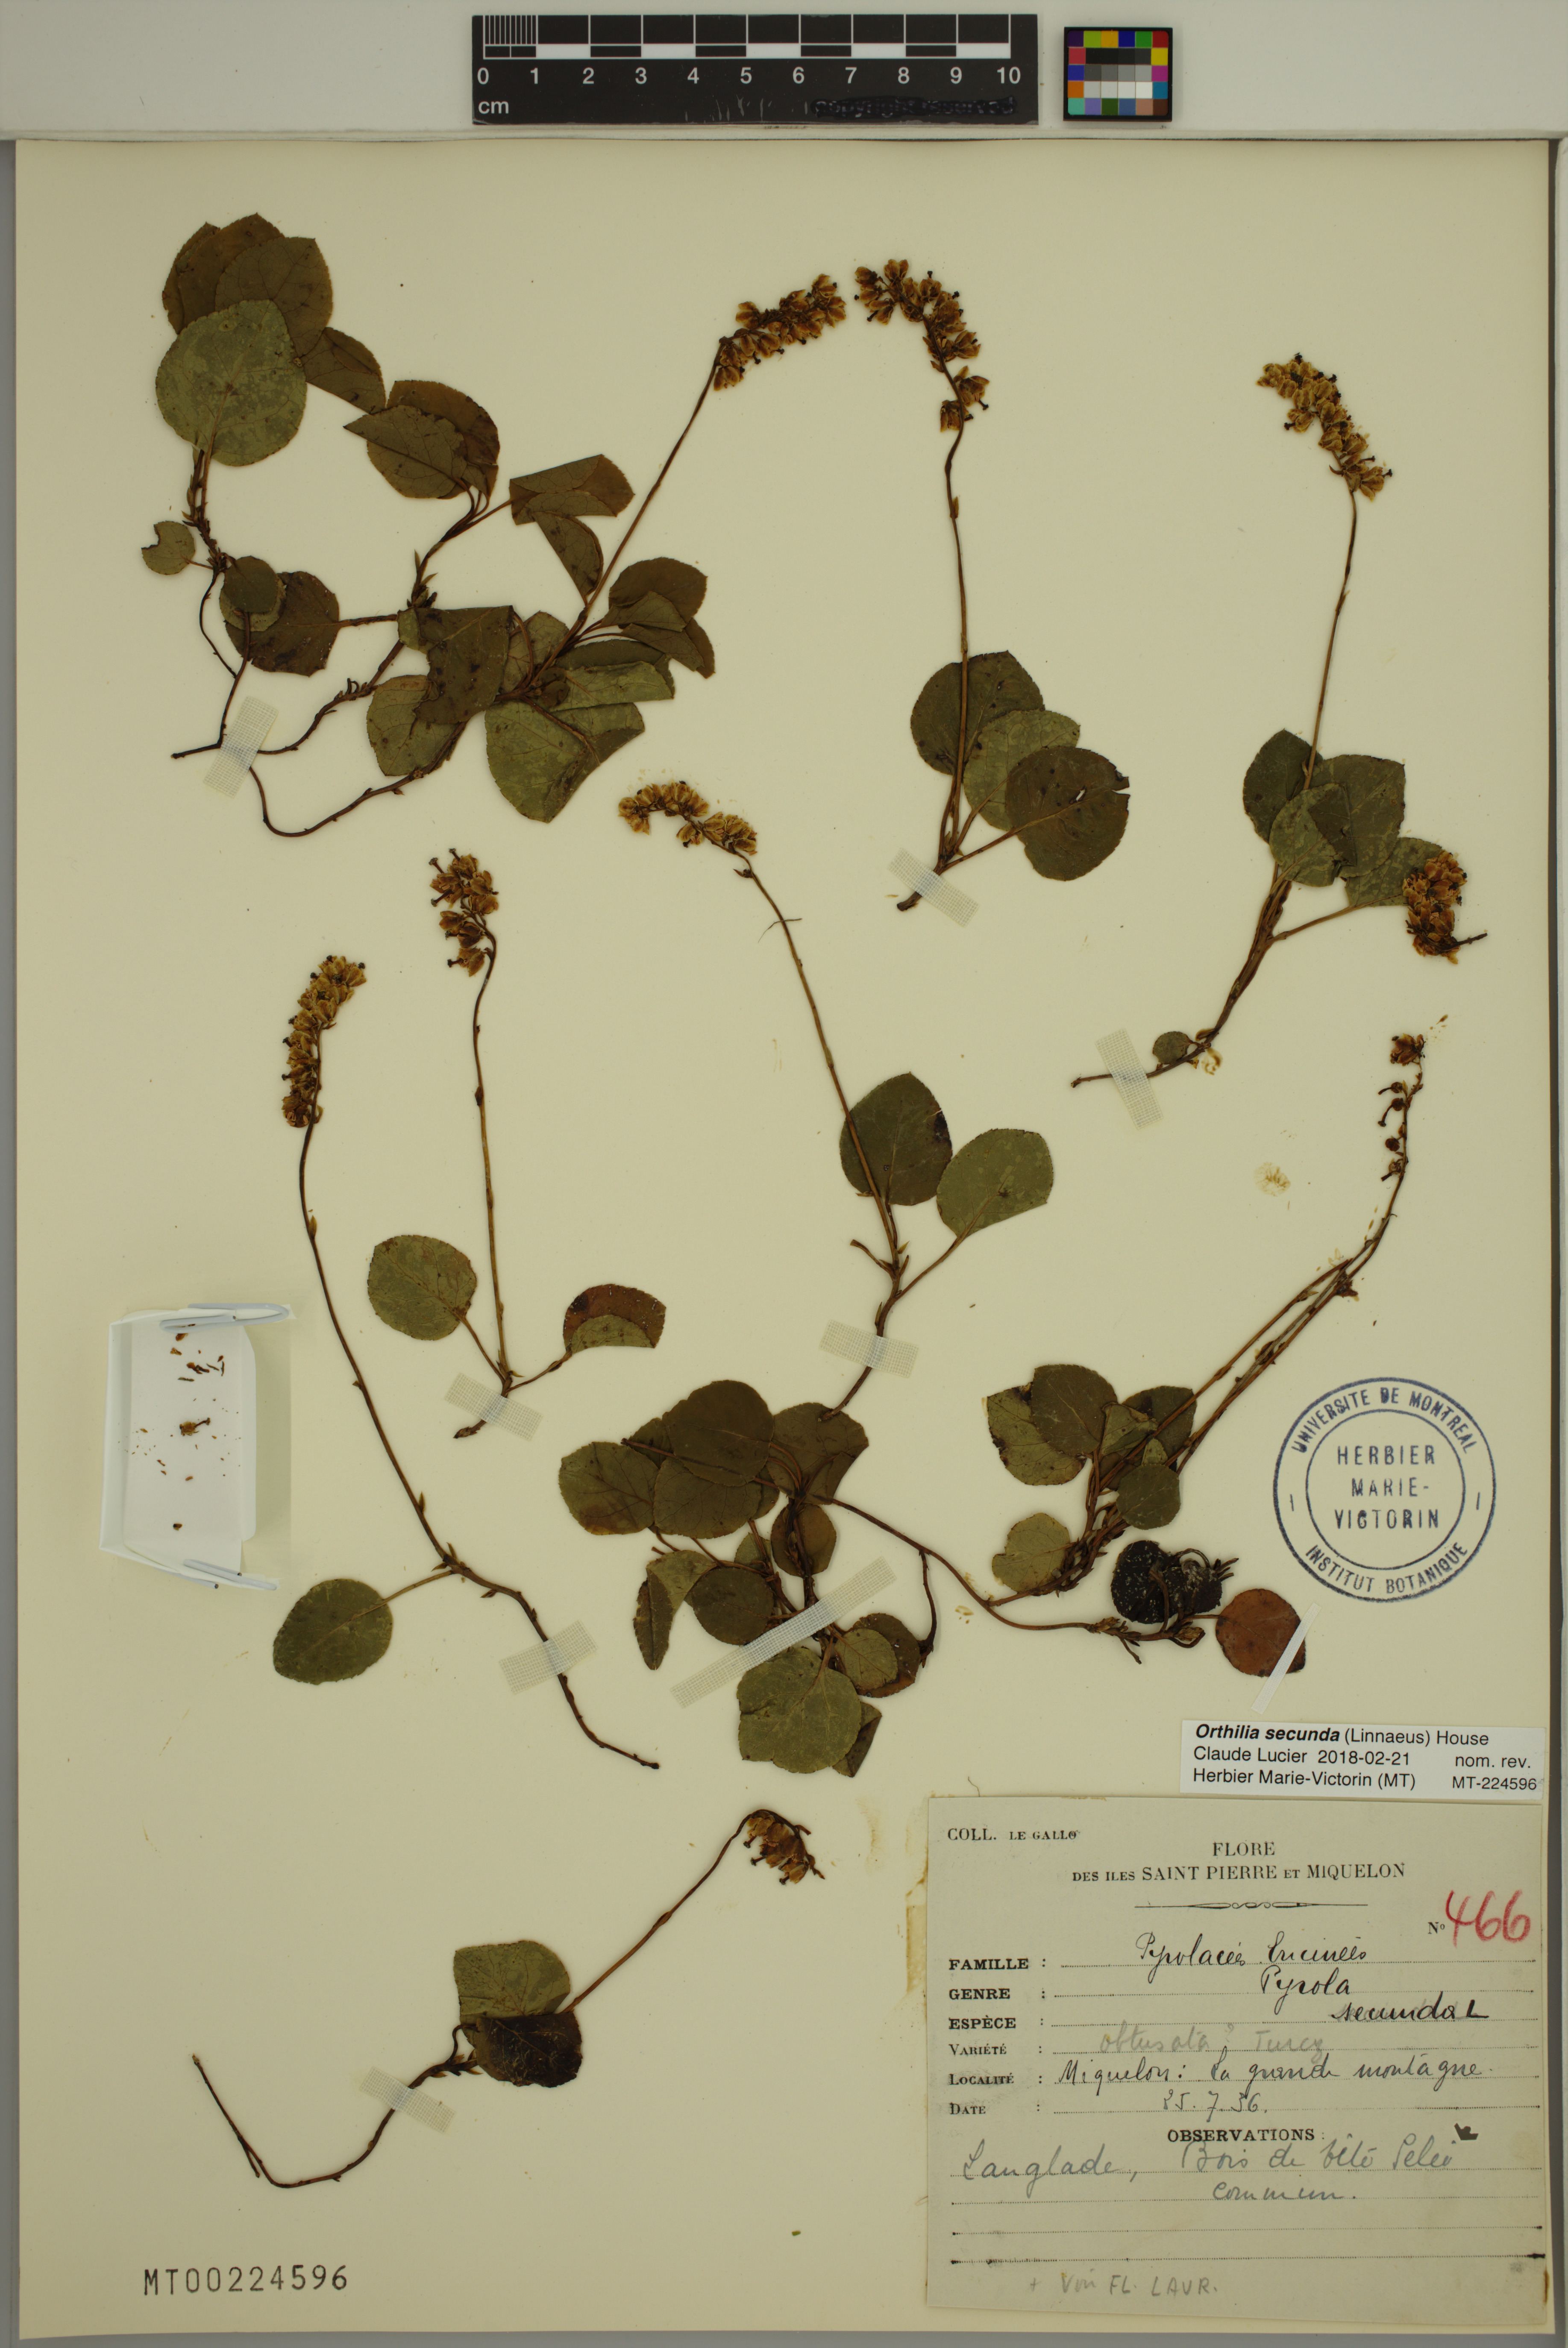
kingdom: Plantae
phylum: Tracheophyta
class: Magnoliopsida
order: Ericales
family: Ericaceae
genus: Orthilia
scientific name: Orthilia secunda
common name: One-sided orthilia
